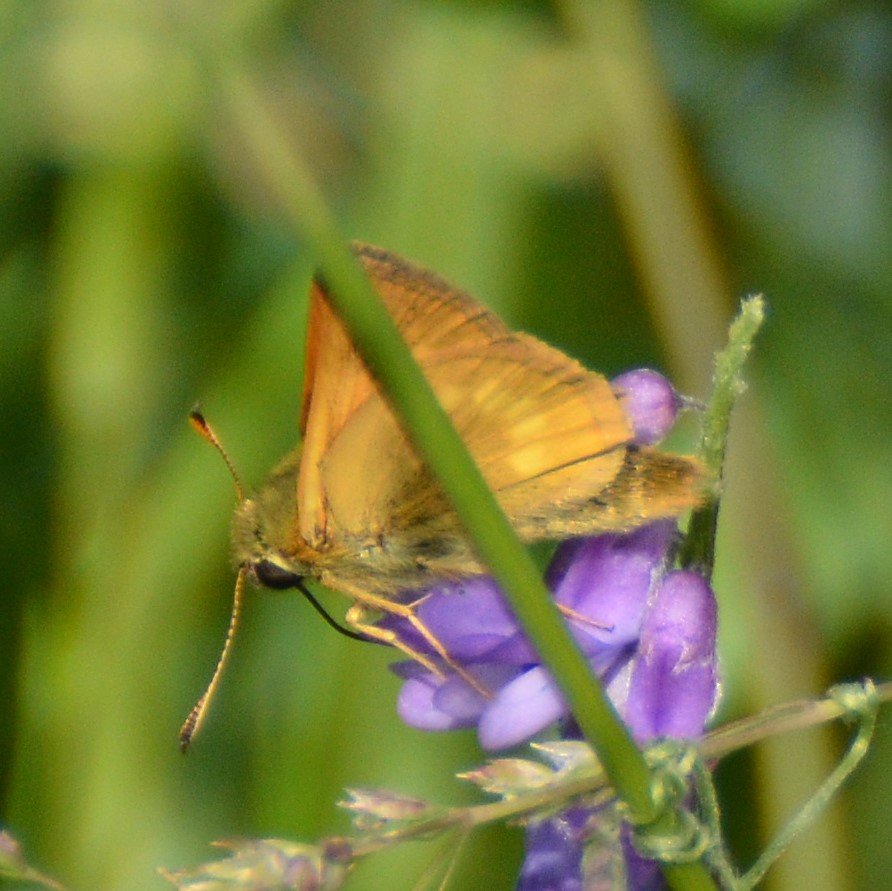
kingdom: Animalia
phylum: Arthropoda
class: Insecta
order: Lepidoptera
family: Hesperiidae
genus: Polites
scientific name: Polites
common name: Long Dash Skipper
